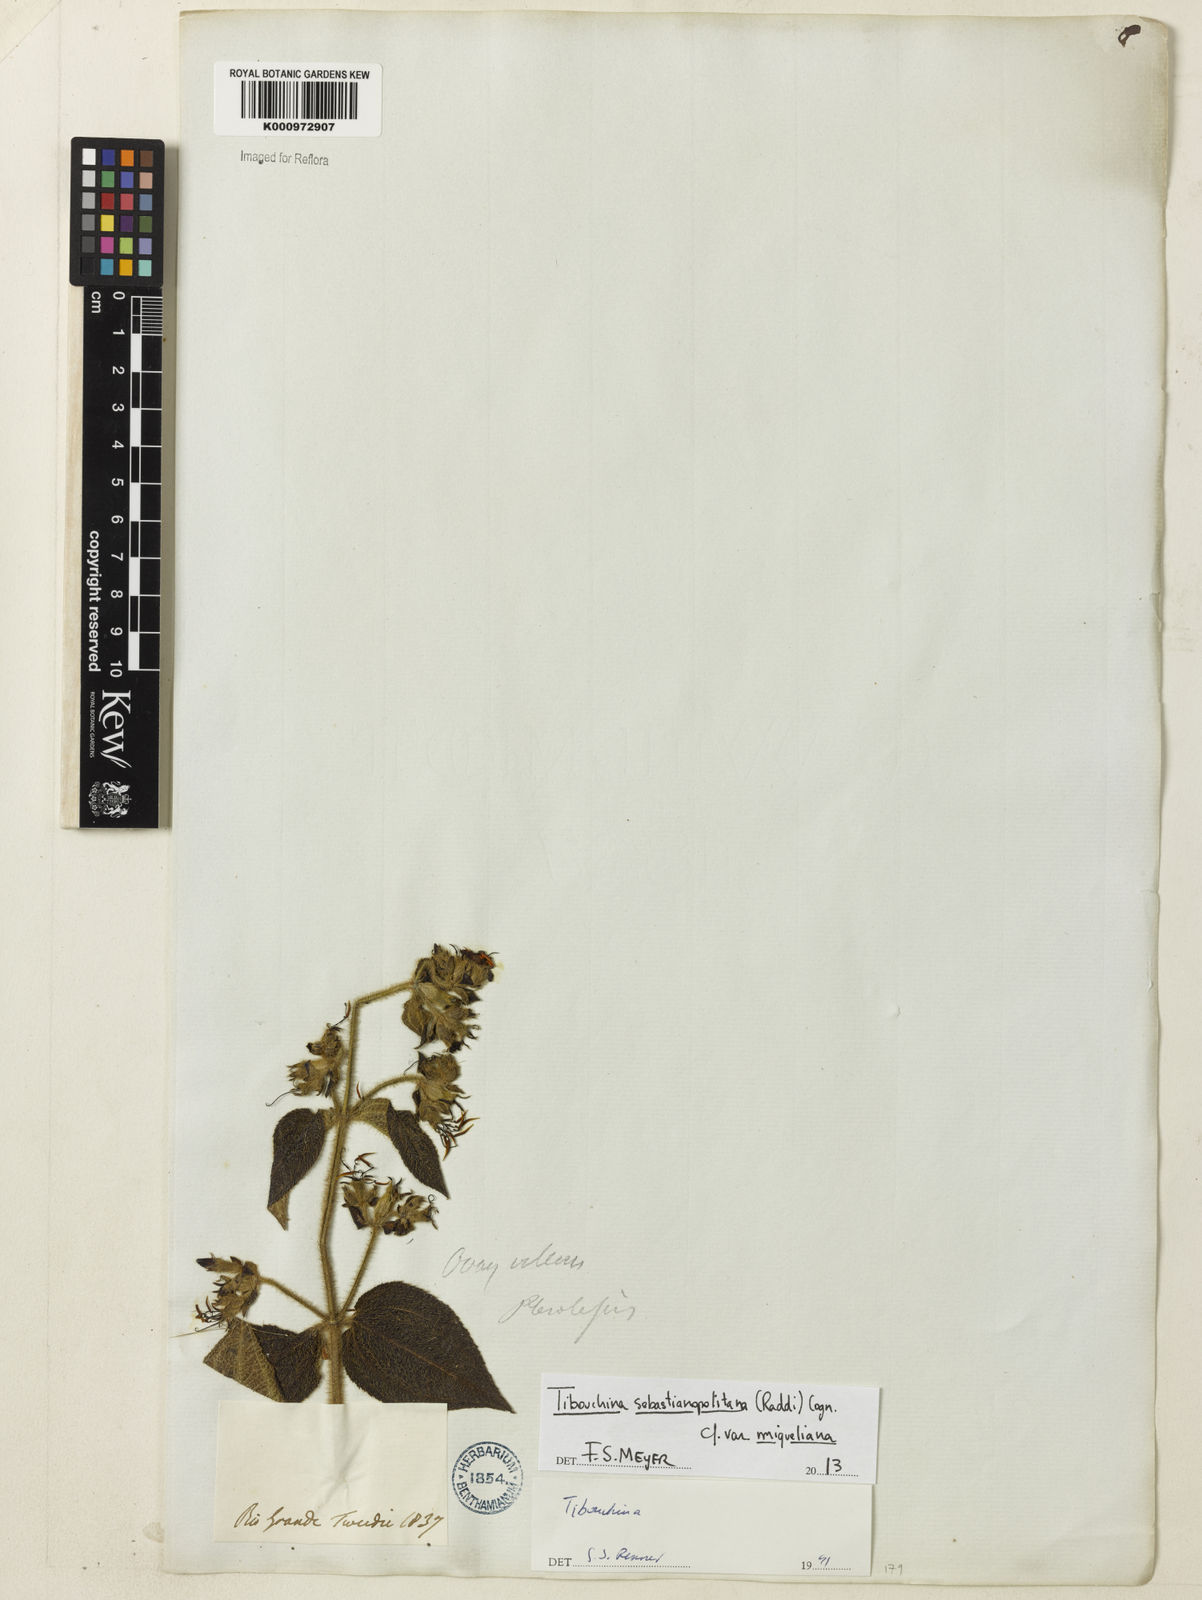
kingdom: Plantae
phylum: Tracheophyta
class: Magnoliopsida
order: Myrtales
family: Melastomataceae
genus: Chaetogastra
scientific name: Chaetogastra sebastianopolitana
